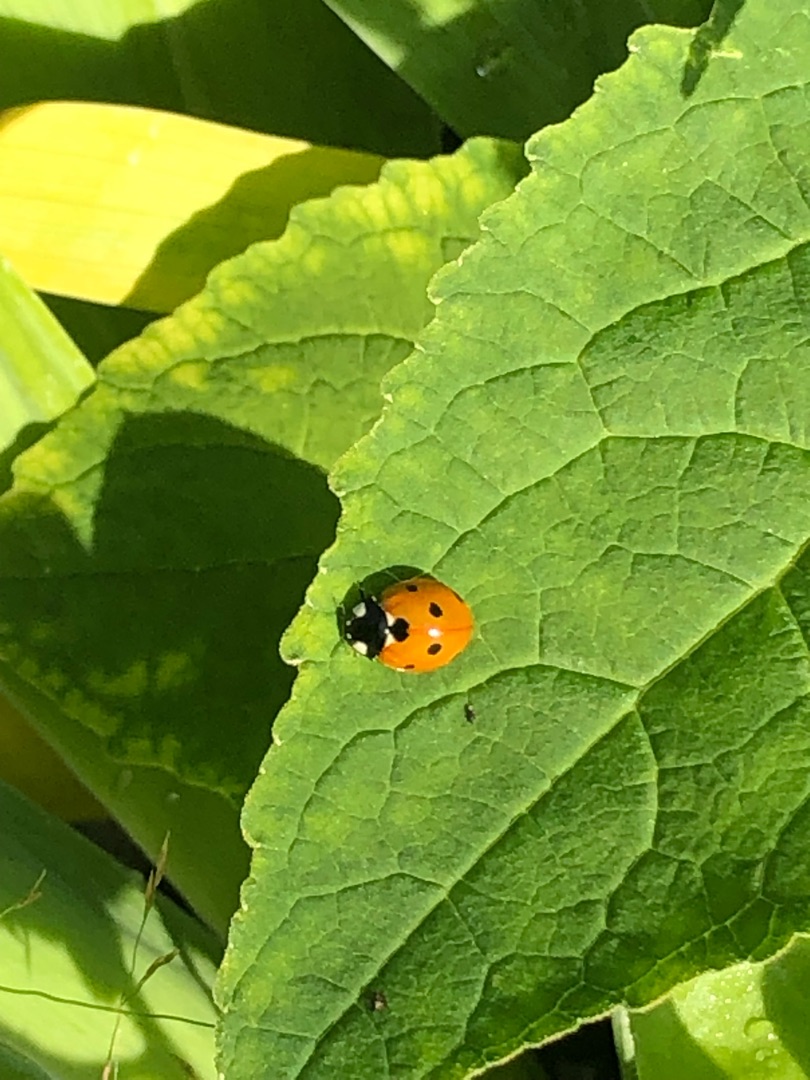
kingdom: Animalia
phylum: Arthropoda
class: Insecta
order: Coleoptera
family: Coccinellidae
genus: Coccinella
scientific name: Coccinella septempunctata
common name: Syvplettet mariehøne
